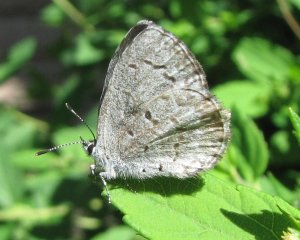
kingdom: Animalia
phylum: Arthropoda
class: Insecta
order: Lepidoptera
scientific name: Lepidoptera
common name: Butterflies
